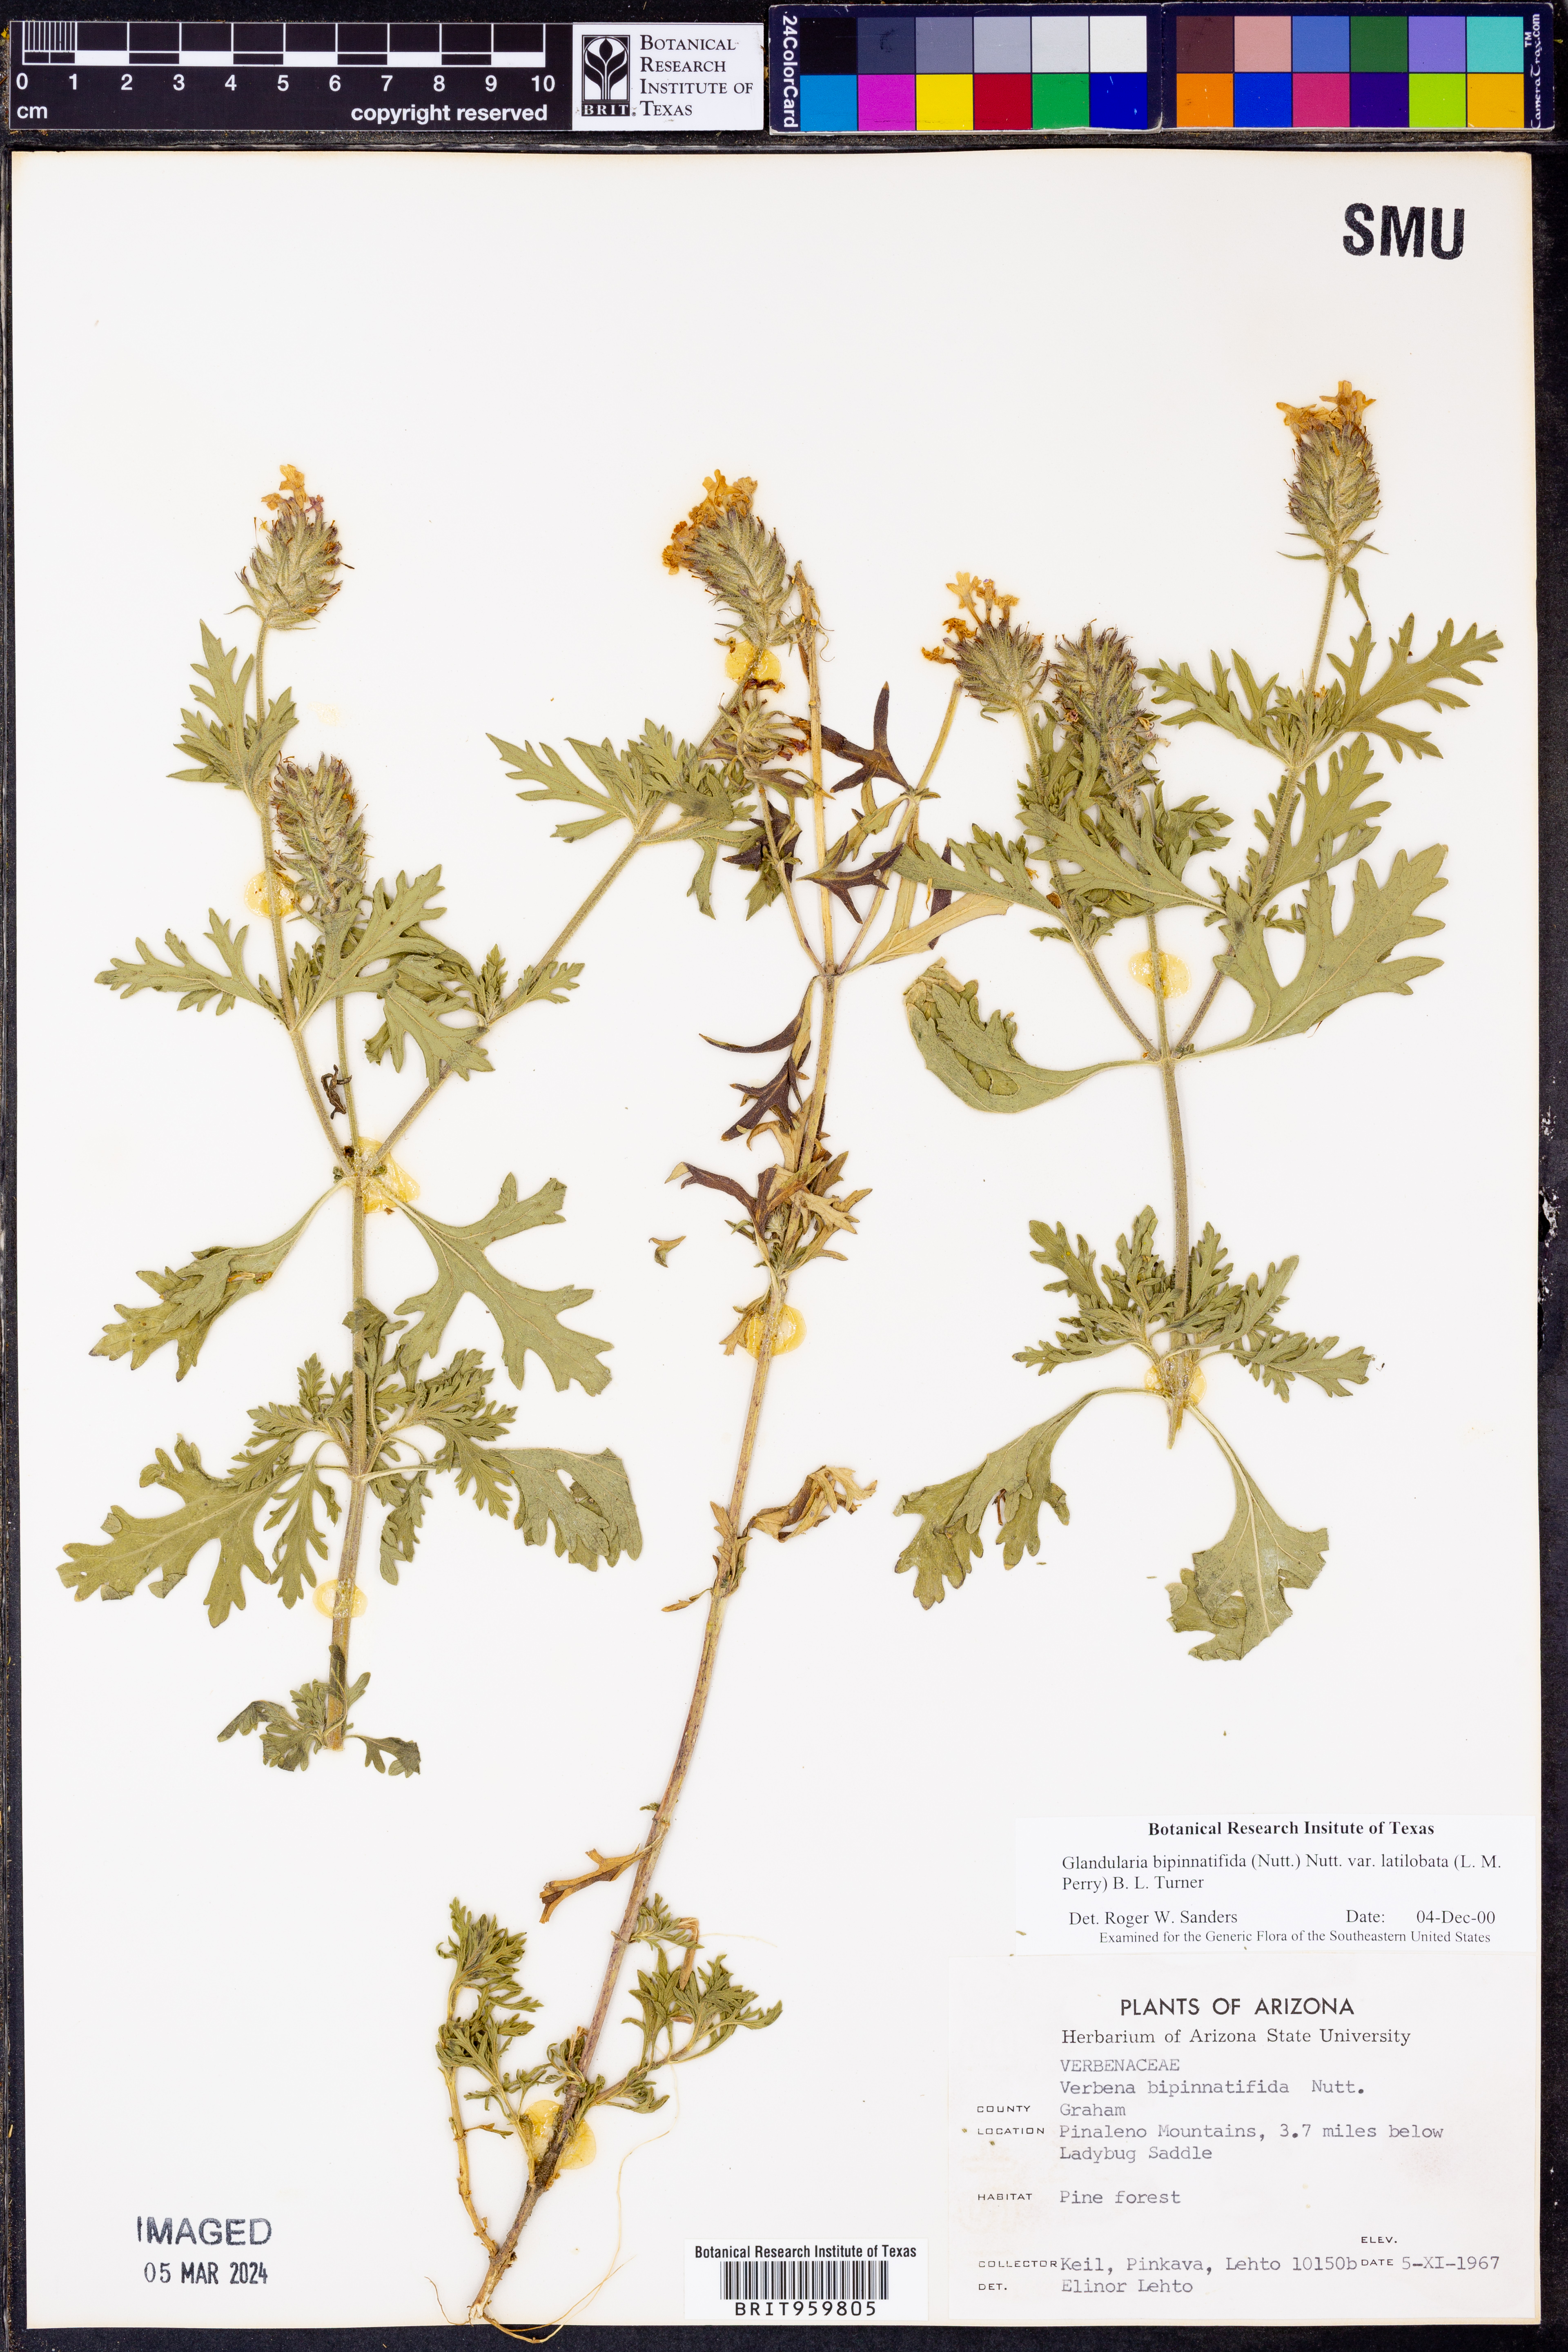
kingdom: Plantae
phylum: Tracheophyta
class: Magnoliopsida
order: Lamiales
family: Verbenaceae
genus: Verbena
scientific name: Verbena gooddingii
